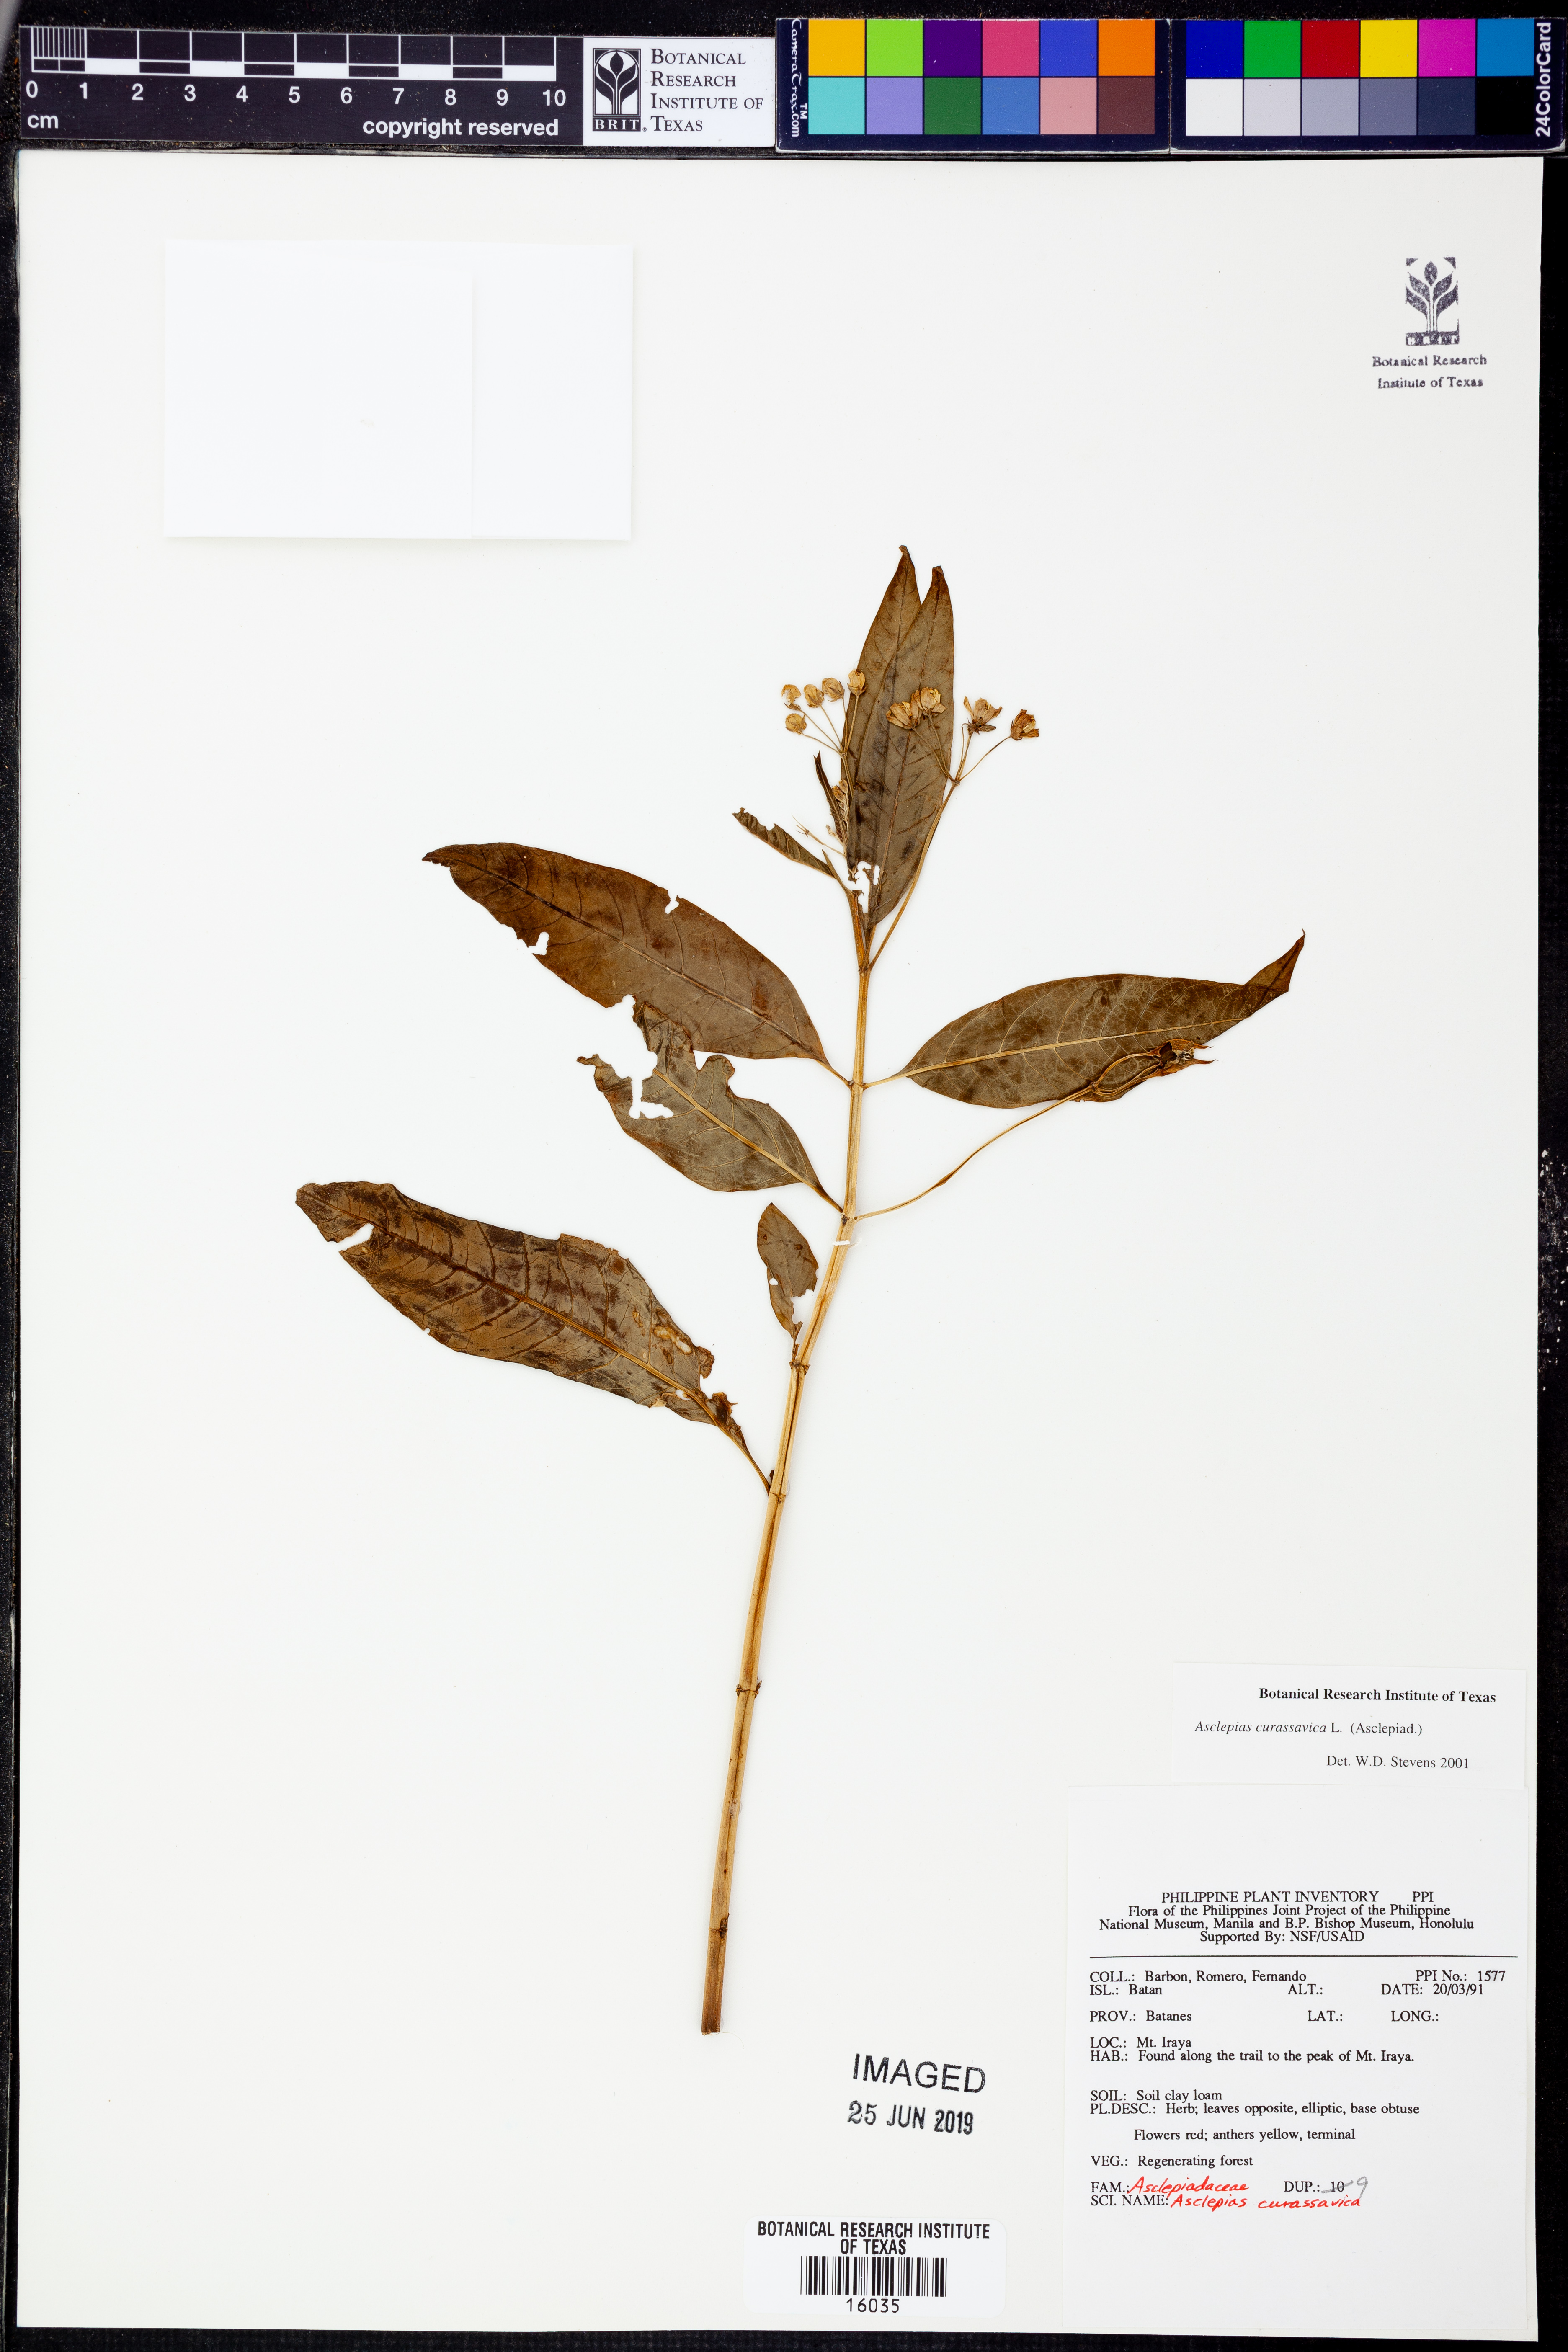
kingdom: Plantae
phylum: Tracheophyta
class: Magnoliopsida
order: Gentianales
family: Apocynaceae
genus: Asclepias
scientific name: Asclepias curassavica
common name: Bloodflower
